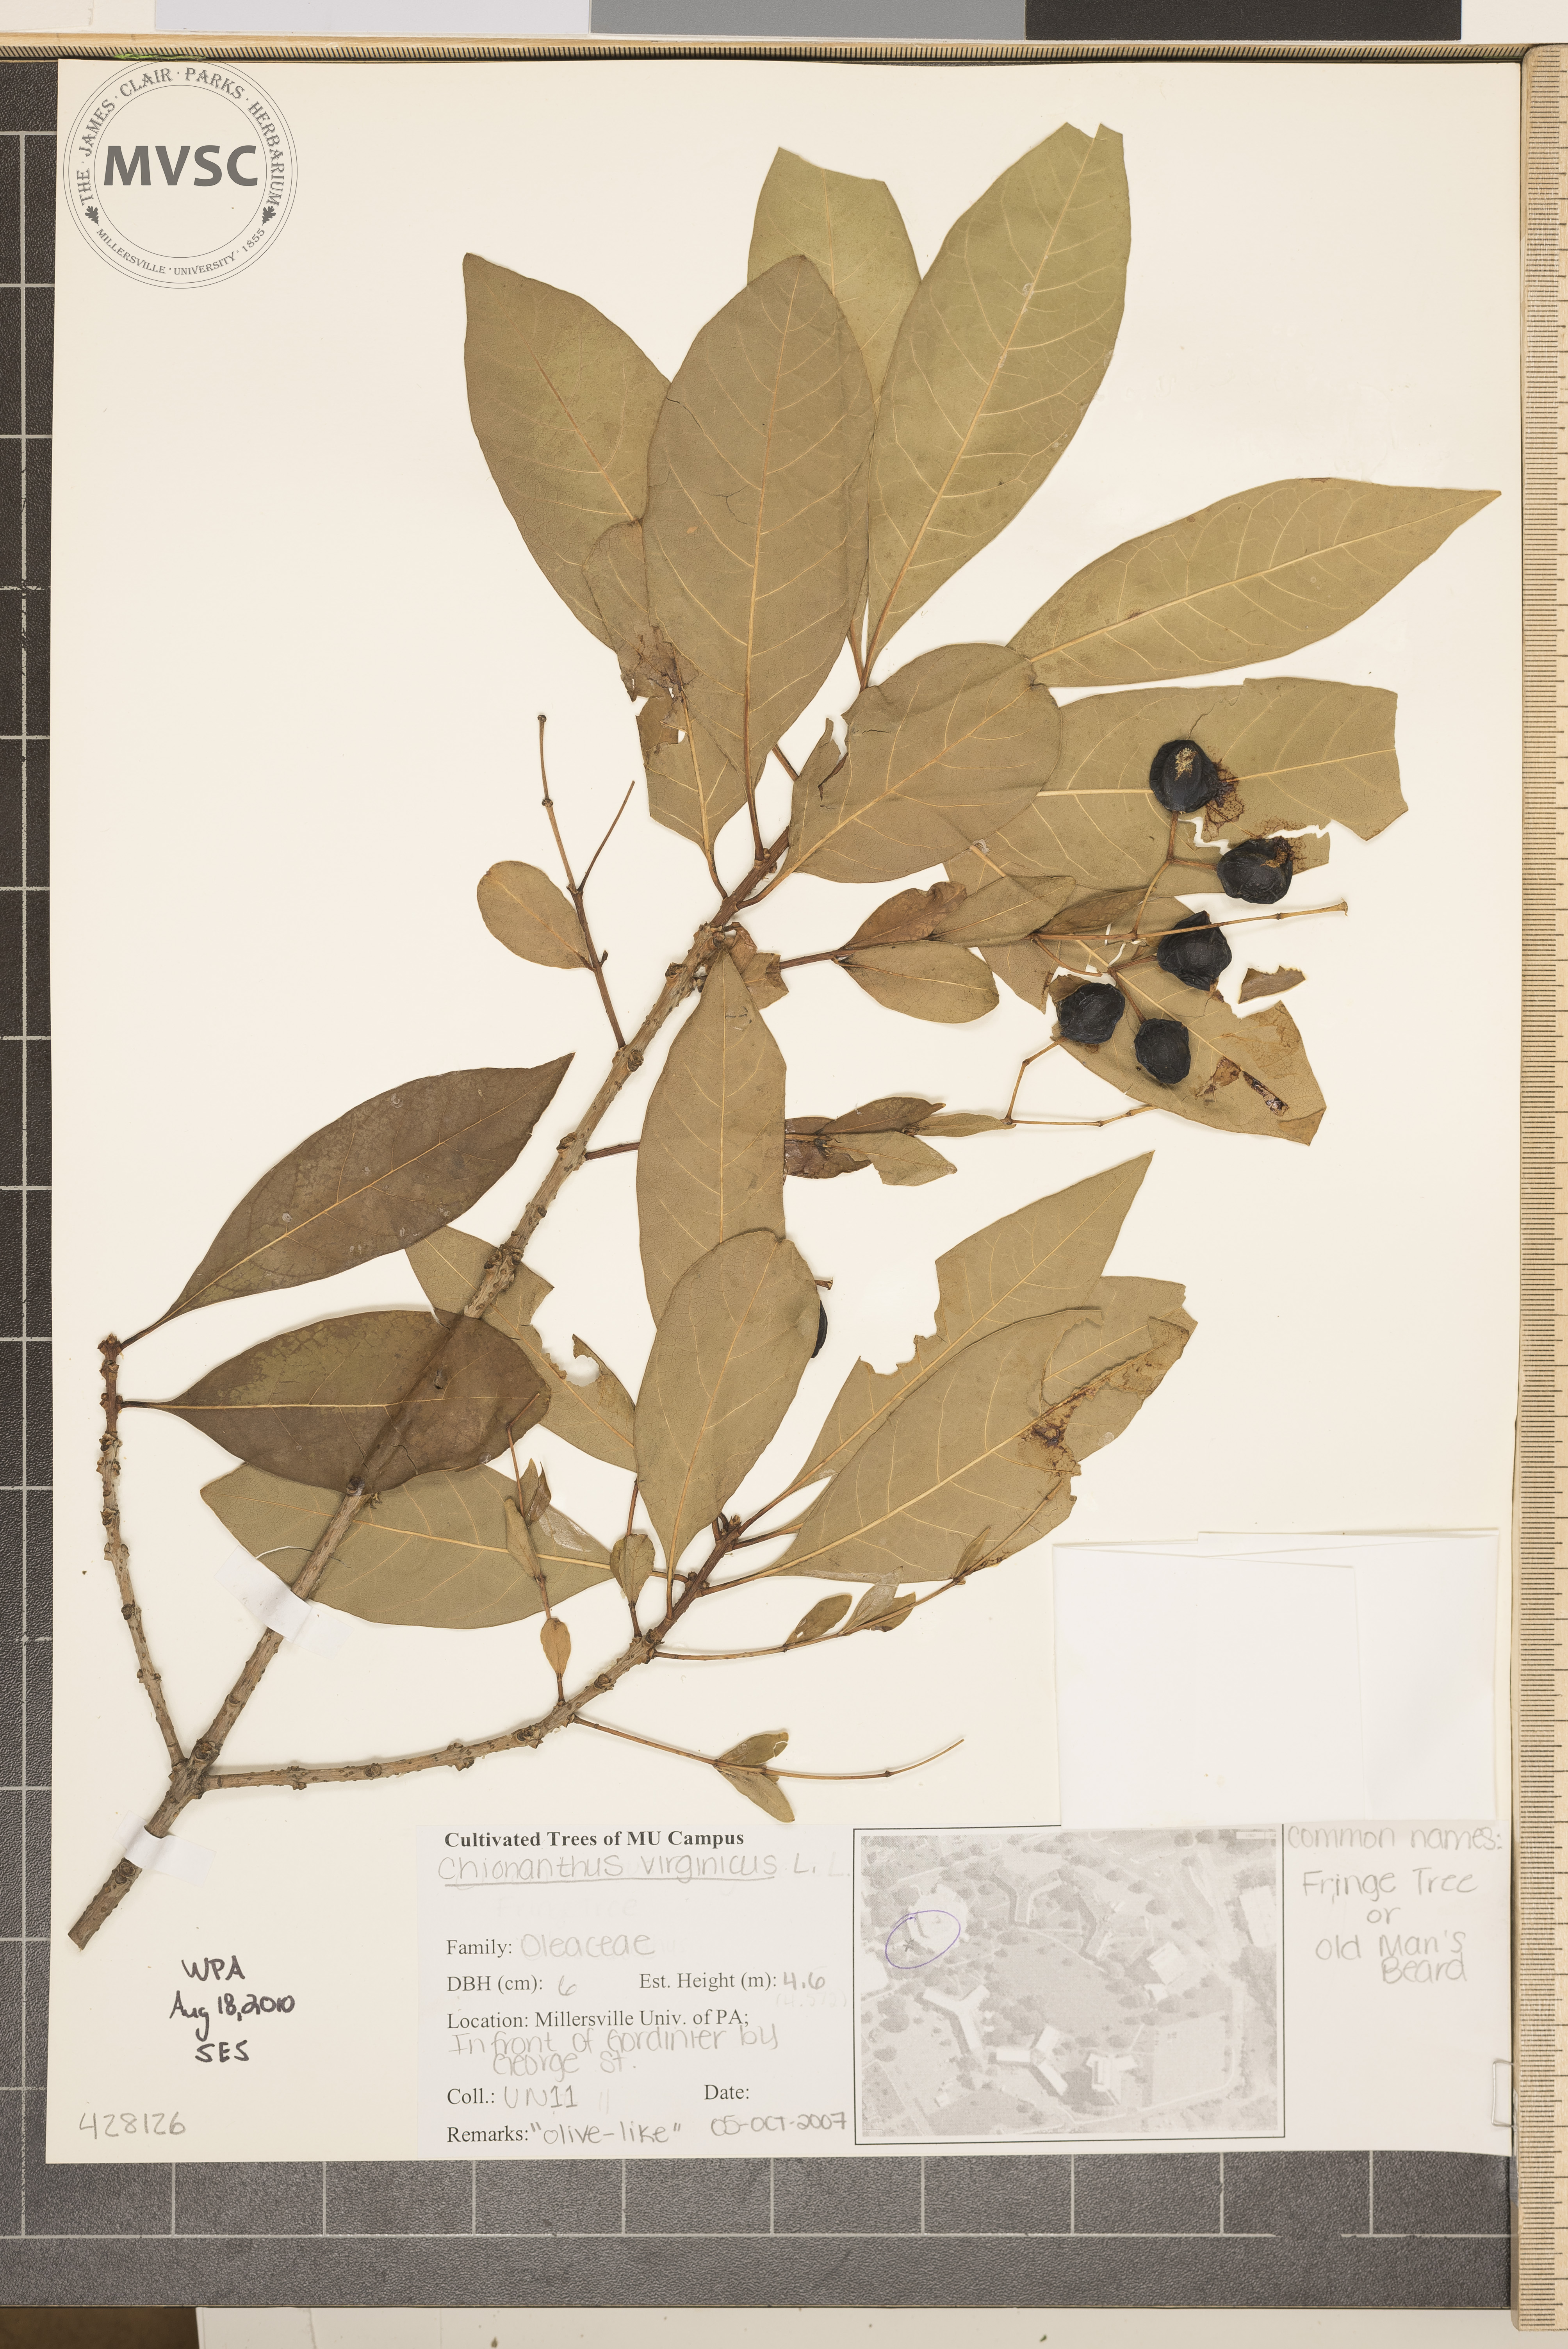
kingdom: Plantae
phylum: Tracheophyta
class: Magnoliopsida
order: Lamiales
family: Oleaceae
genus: Chionanthus
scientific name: Chionanthus virginicus
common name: Fringetree
